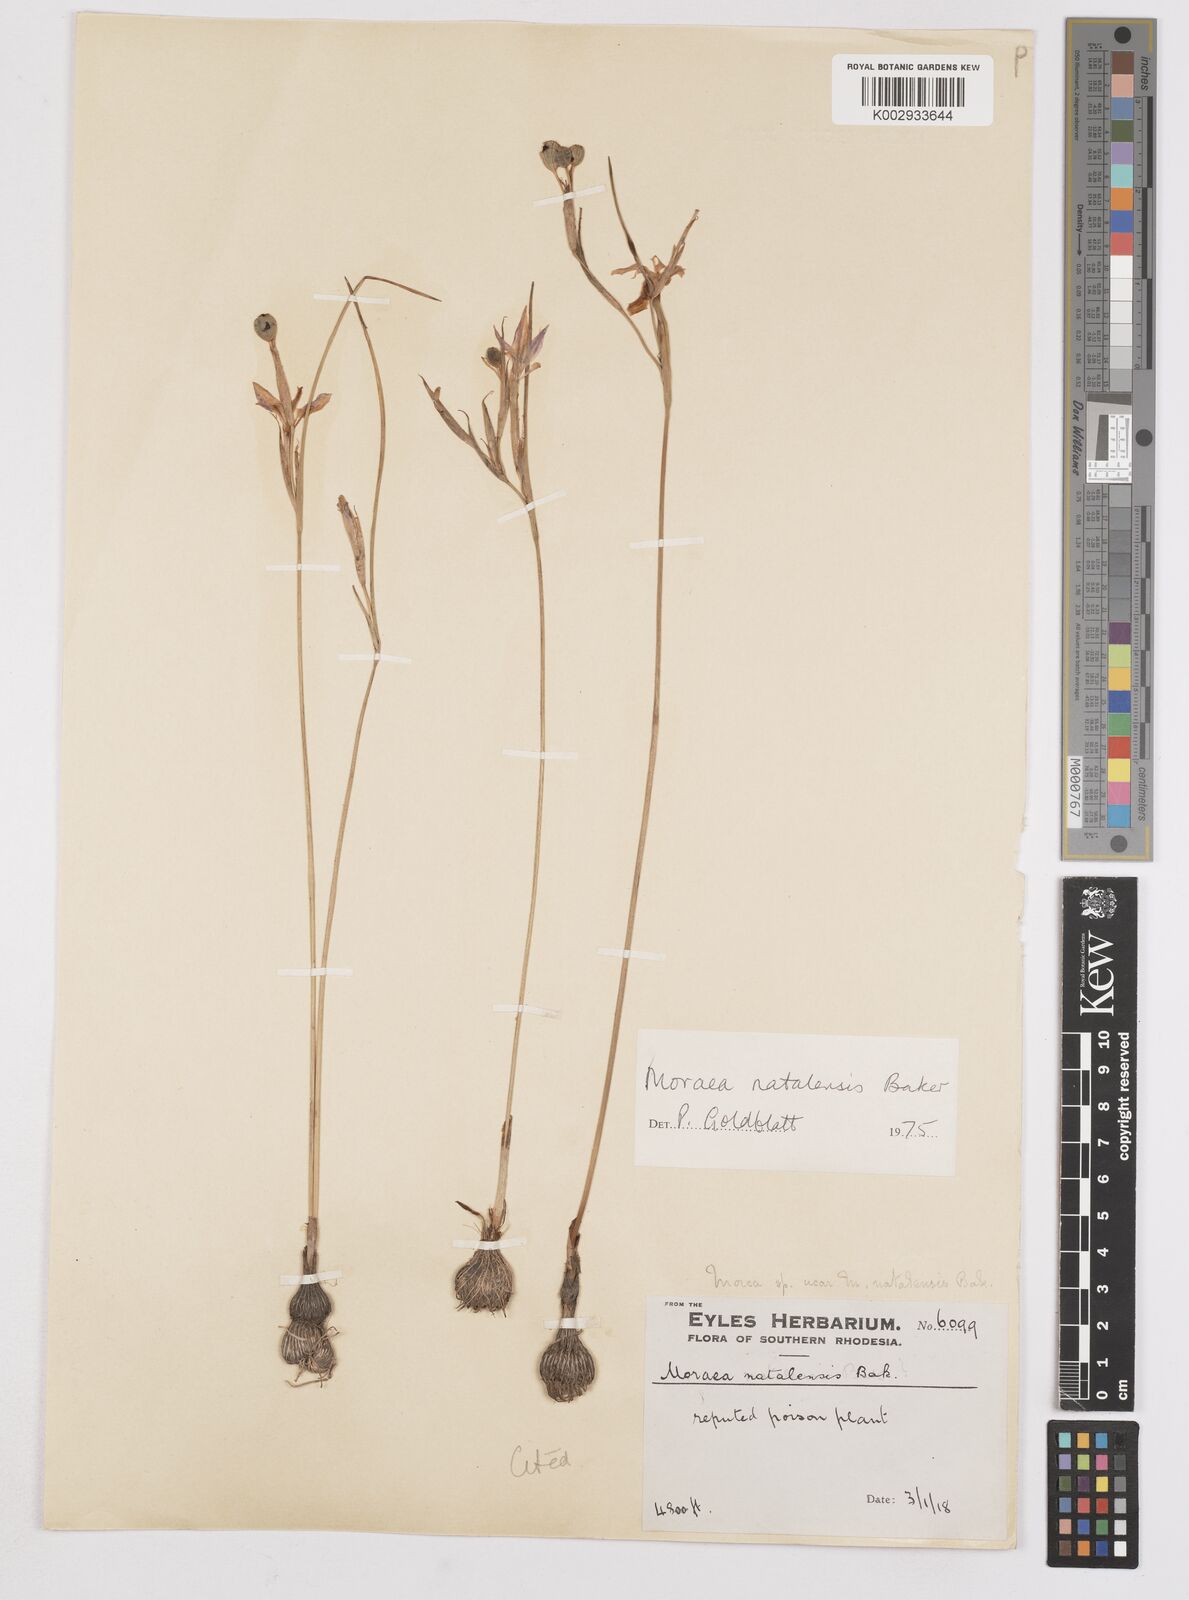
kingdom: Plantae
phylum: Tracheophyta
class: Liliopsida
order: Asparagales
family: Iridaceae
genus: Moraea
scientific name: Moraea natalensis
